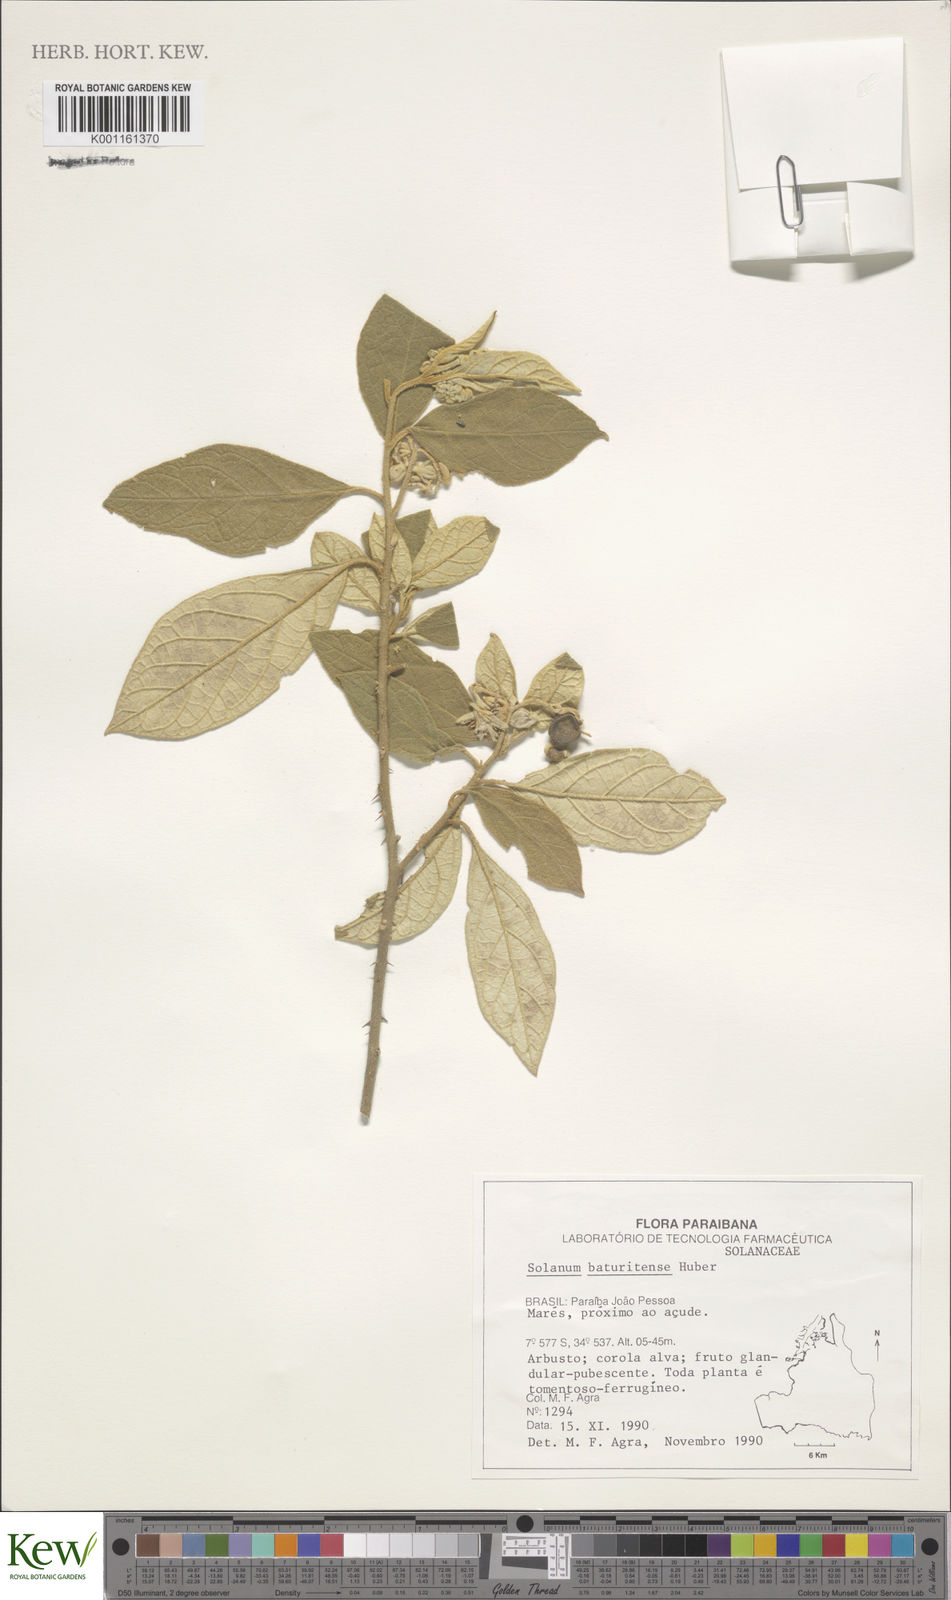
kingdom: Plantae
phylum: Tracheophyta
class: Magnoliopsida
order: Solanales
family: Solanaceae
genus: Solanum
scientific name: Solanum rhytidoandrum
